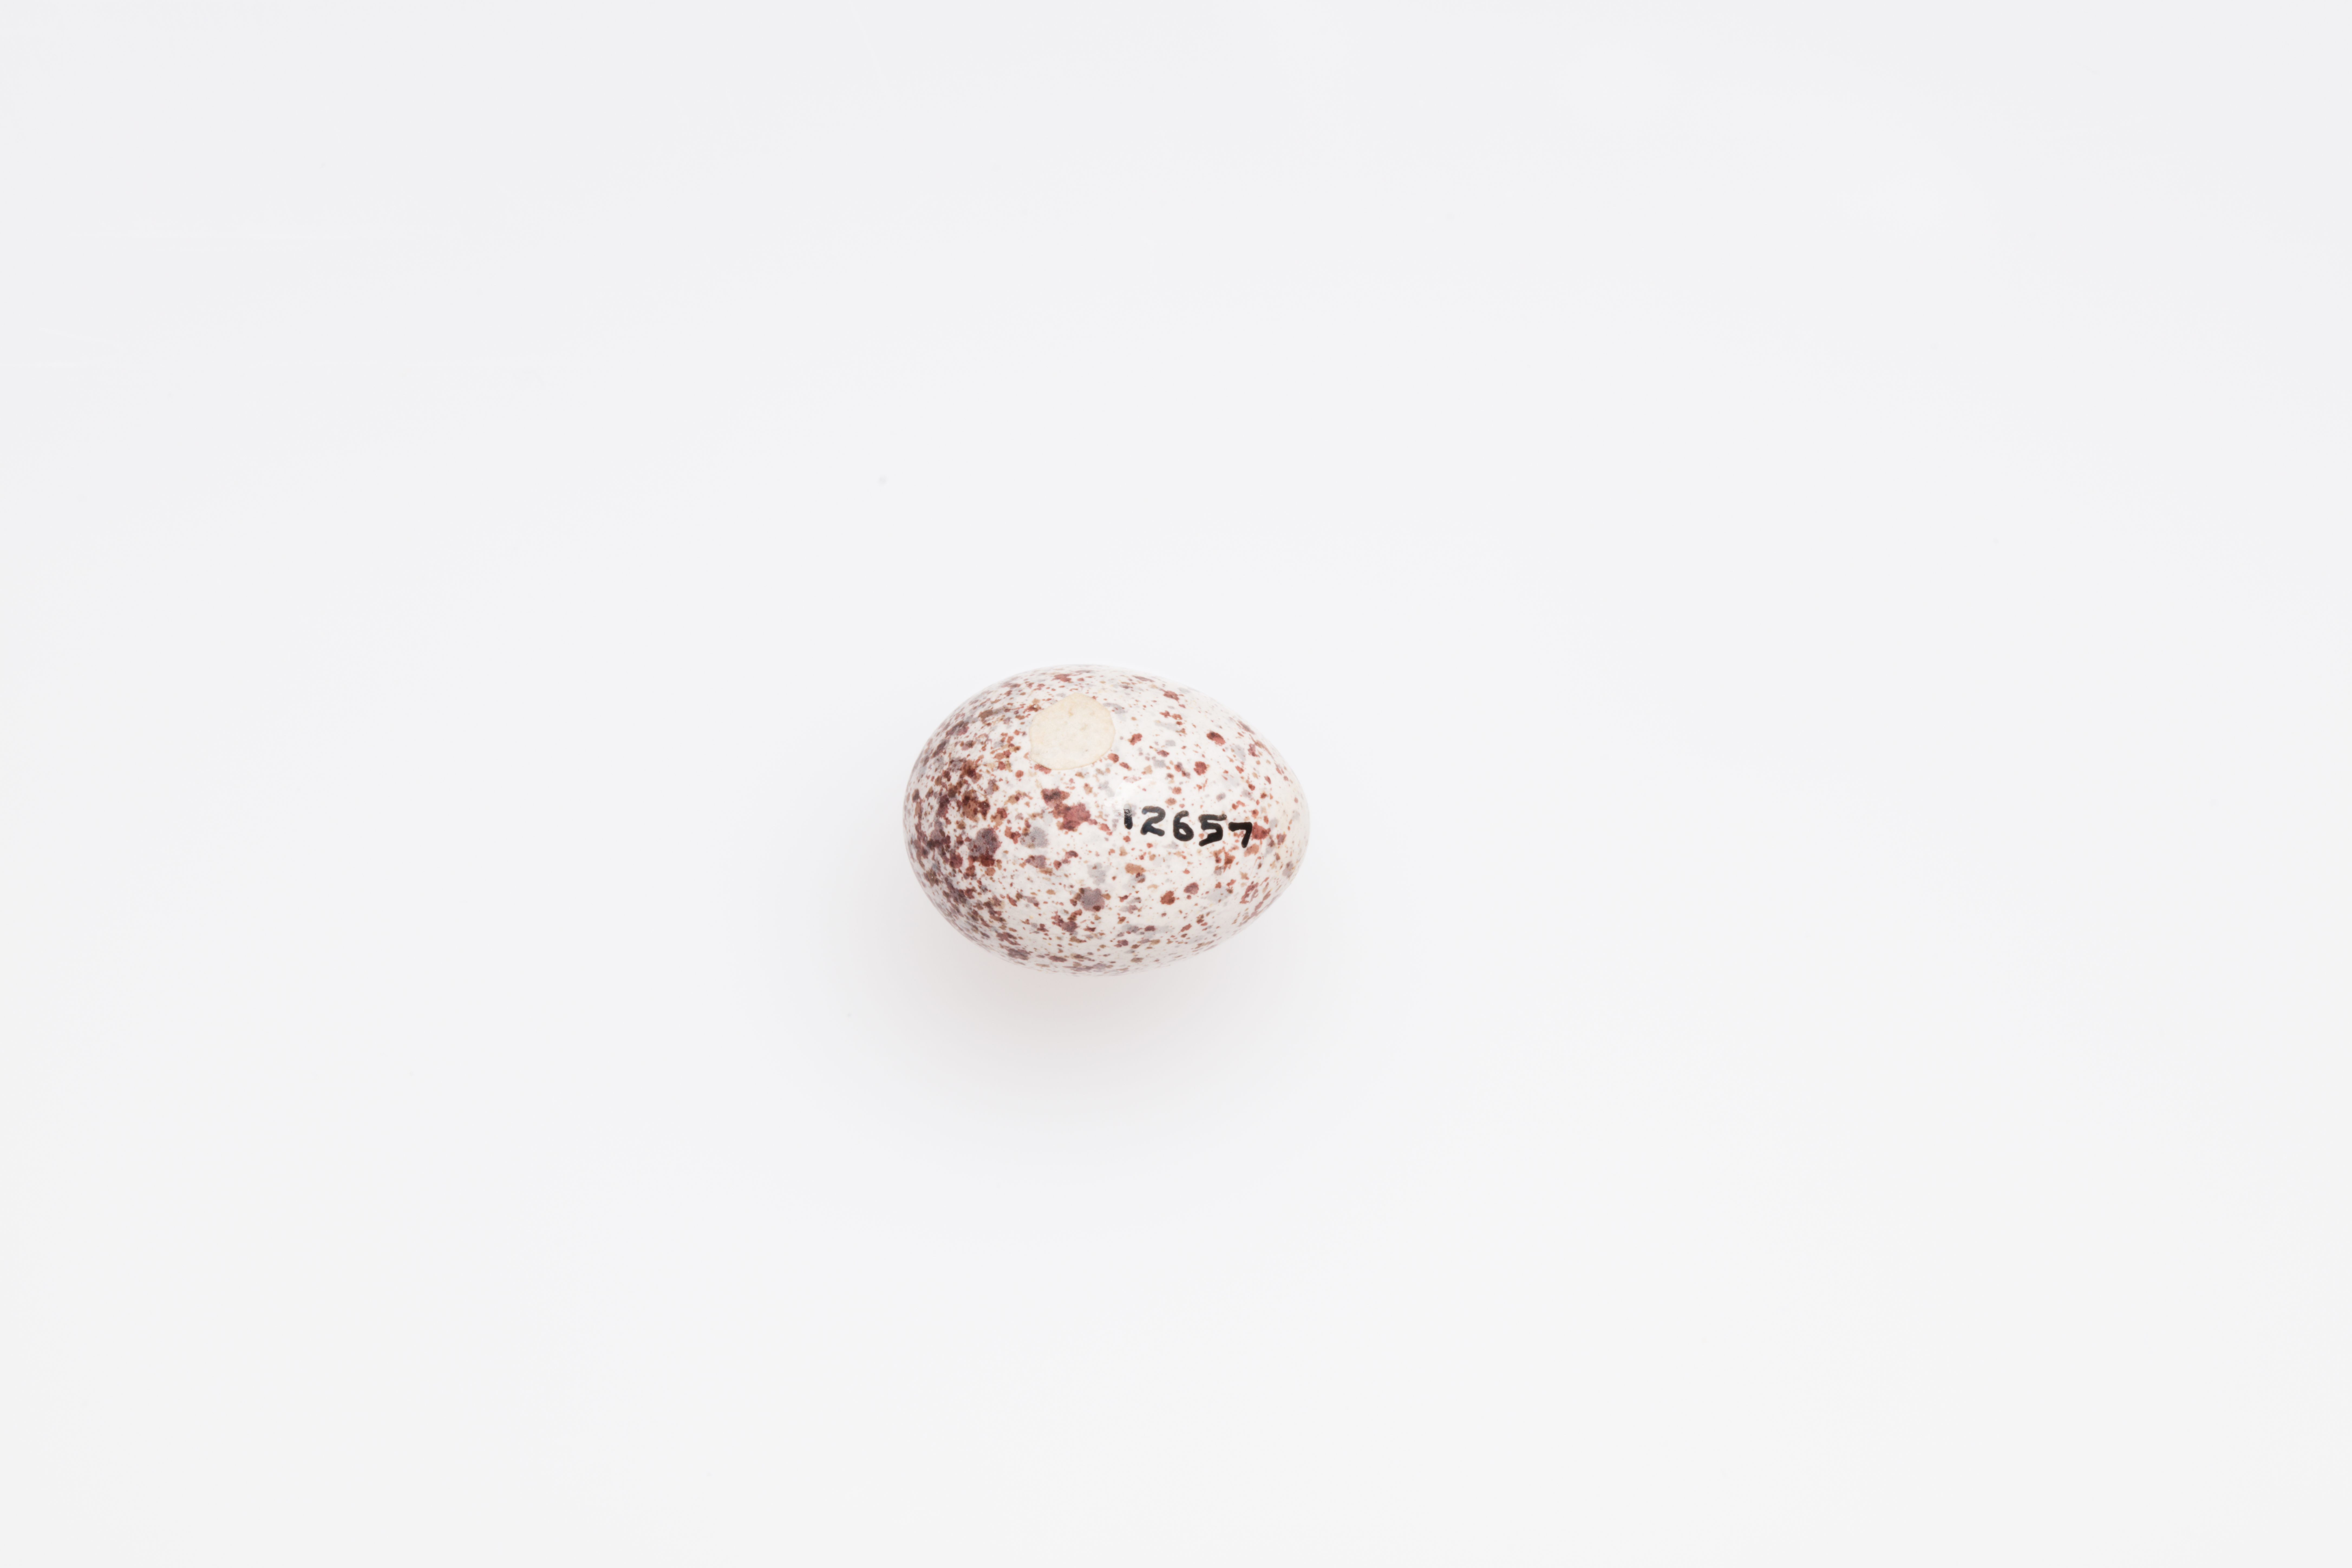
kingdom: Animalia
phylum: Chordata
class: Aves
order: Passeriformes
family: Locustellidae
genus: Megalurus
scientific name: Megalurus gramineus
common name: Little grassbird
